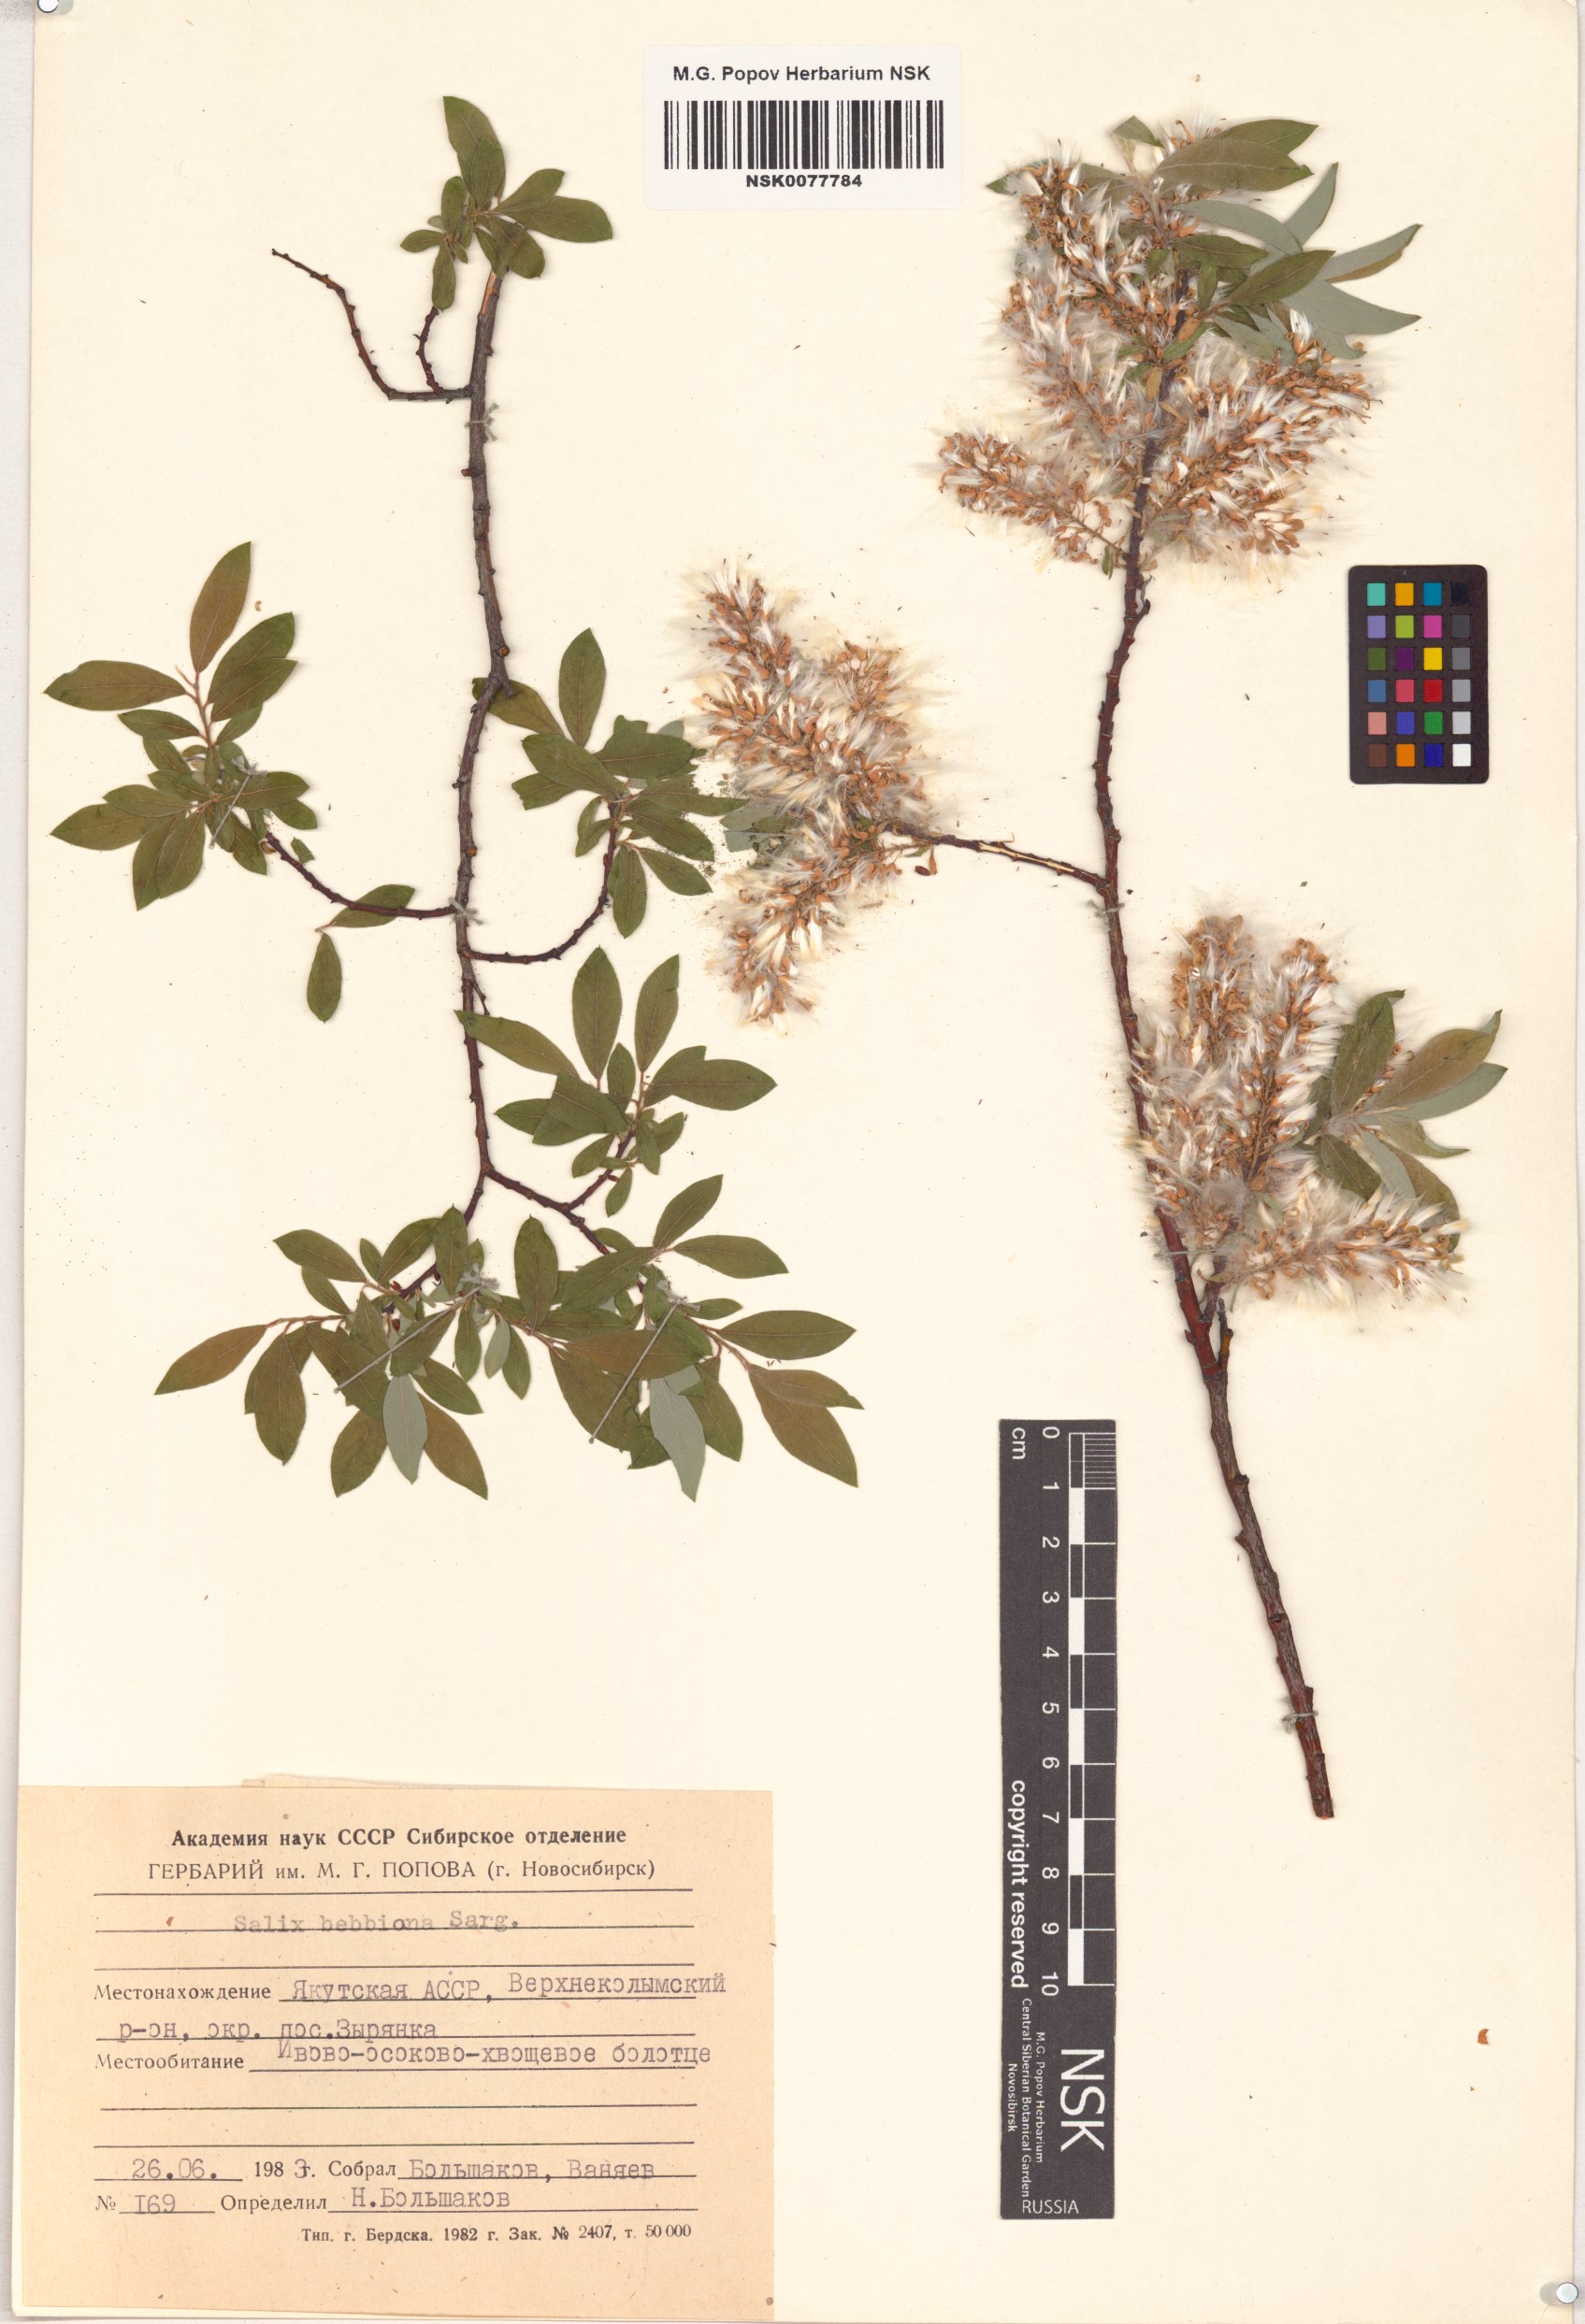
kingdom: Plantae
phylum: Tracheophyta
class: Magnoliopsida
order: Malpighiales
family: Salicaceae
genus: Salix
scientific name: Salix bebbiana
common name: Bebb's willow
